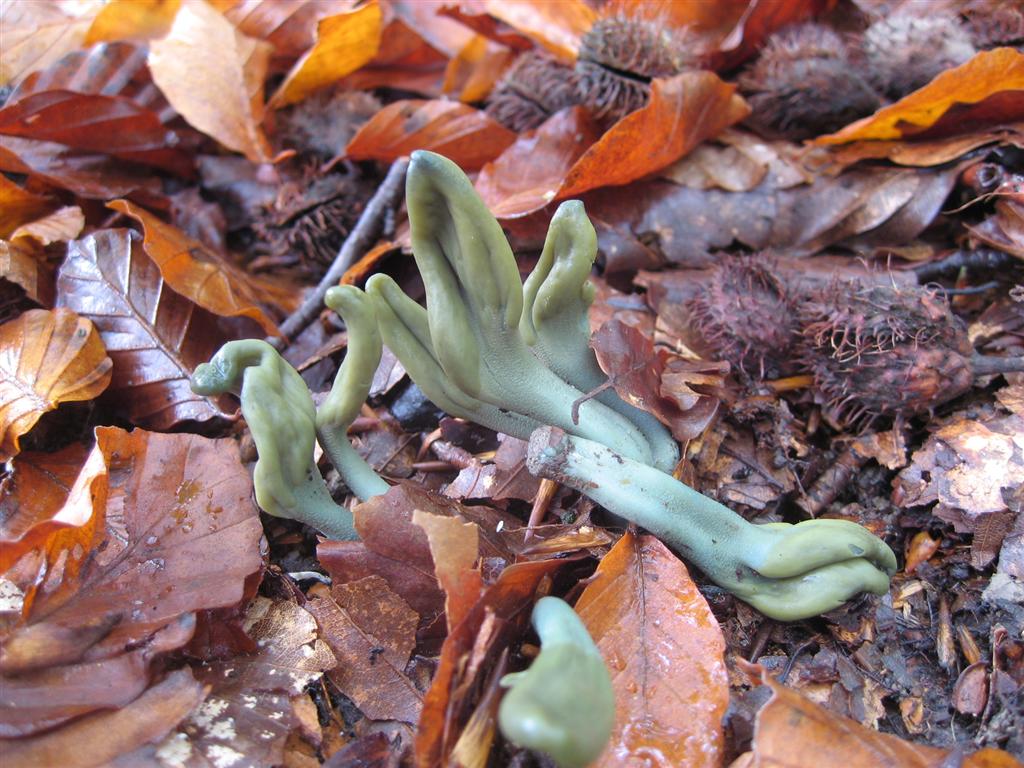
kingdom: Fungi
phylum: Ascomycota
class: Leotiomycetes
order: Leotiales
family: Leotiaceae
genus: Microglossum
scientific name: Microglossum griseoviride
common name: grågrøn farvetunge
